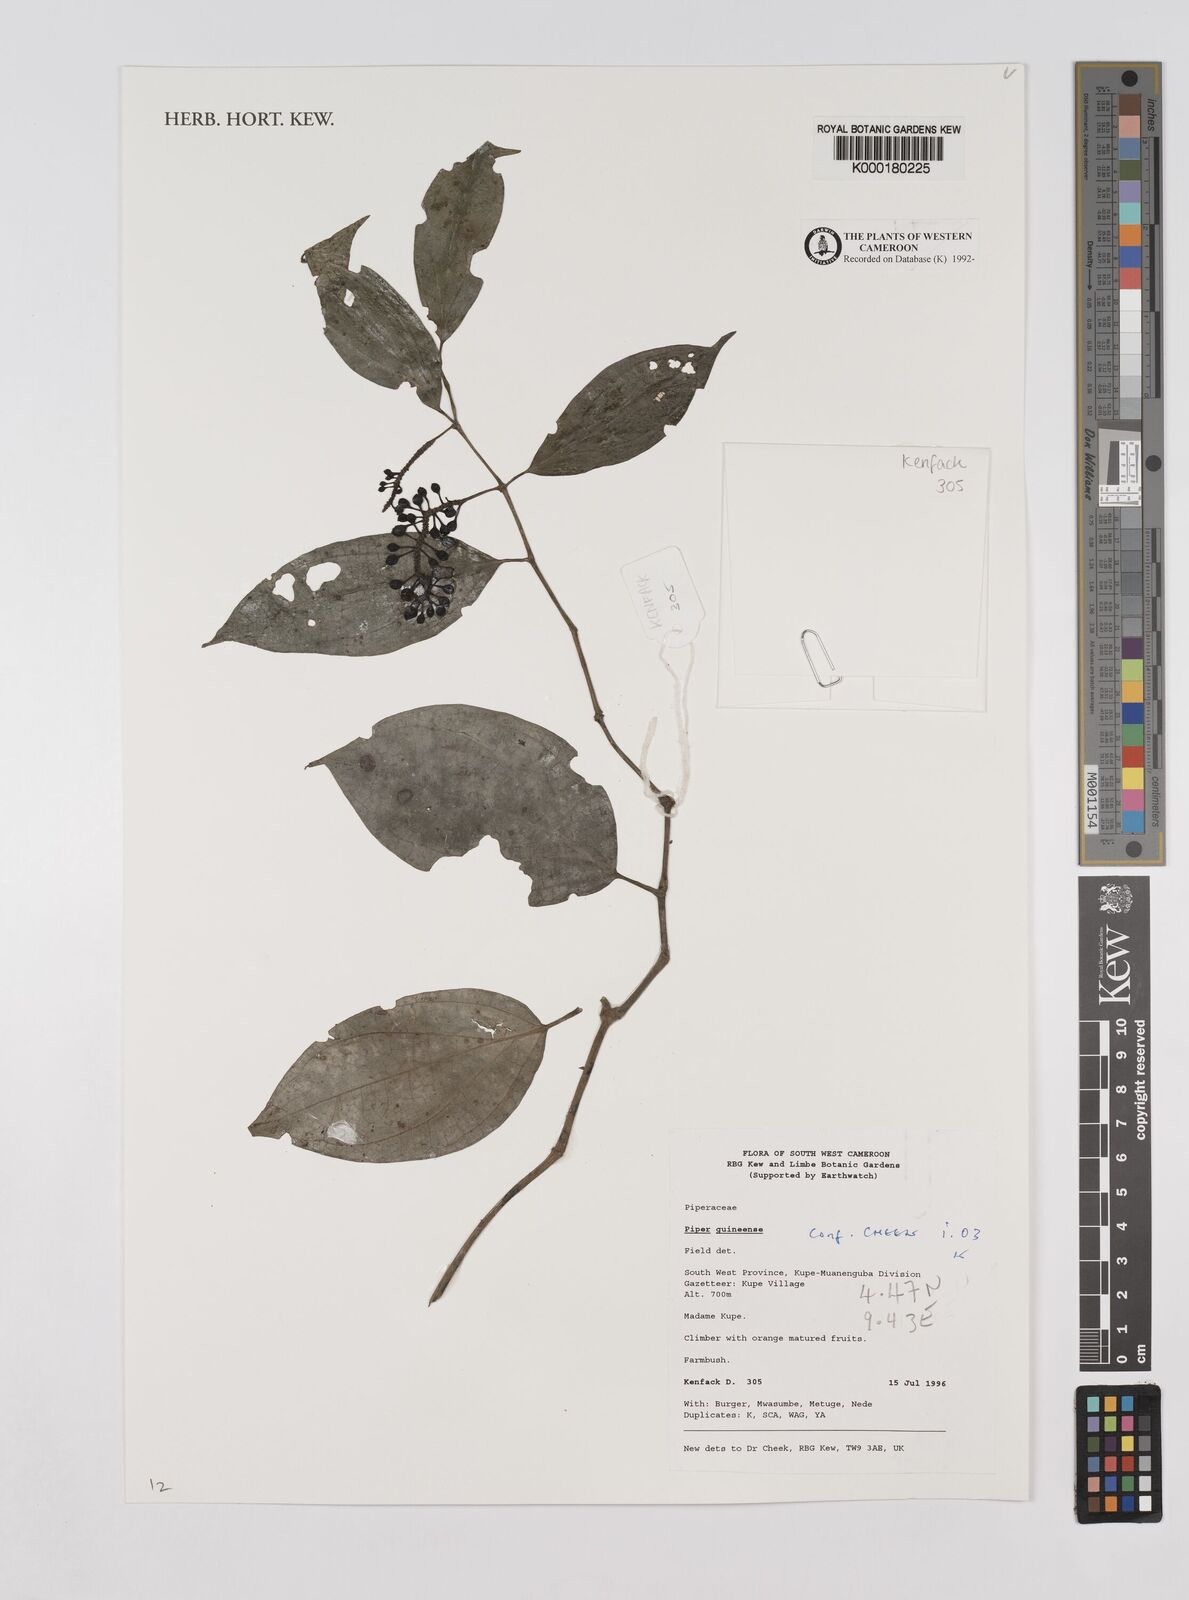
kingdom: Plantae
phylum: Tracheophyta
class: Magnoliopsida
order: Piperales
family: Piperaceae
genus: Piper
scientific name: Piper guineense
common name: Benin pepper
